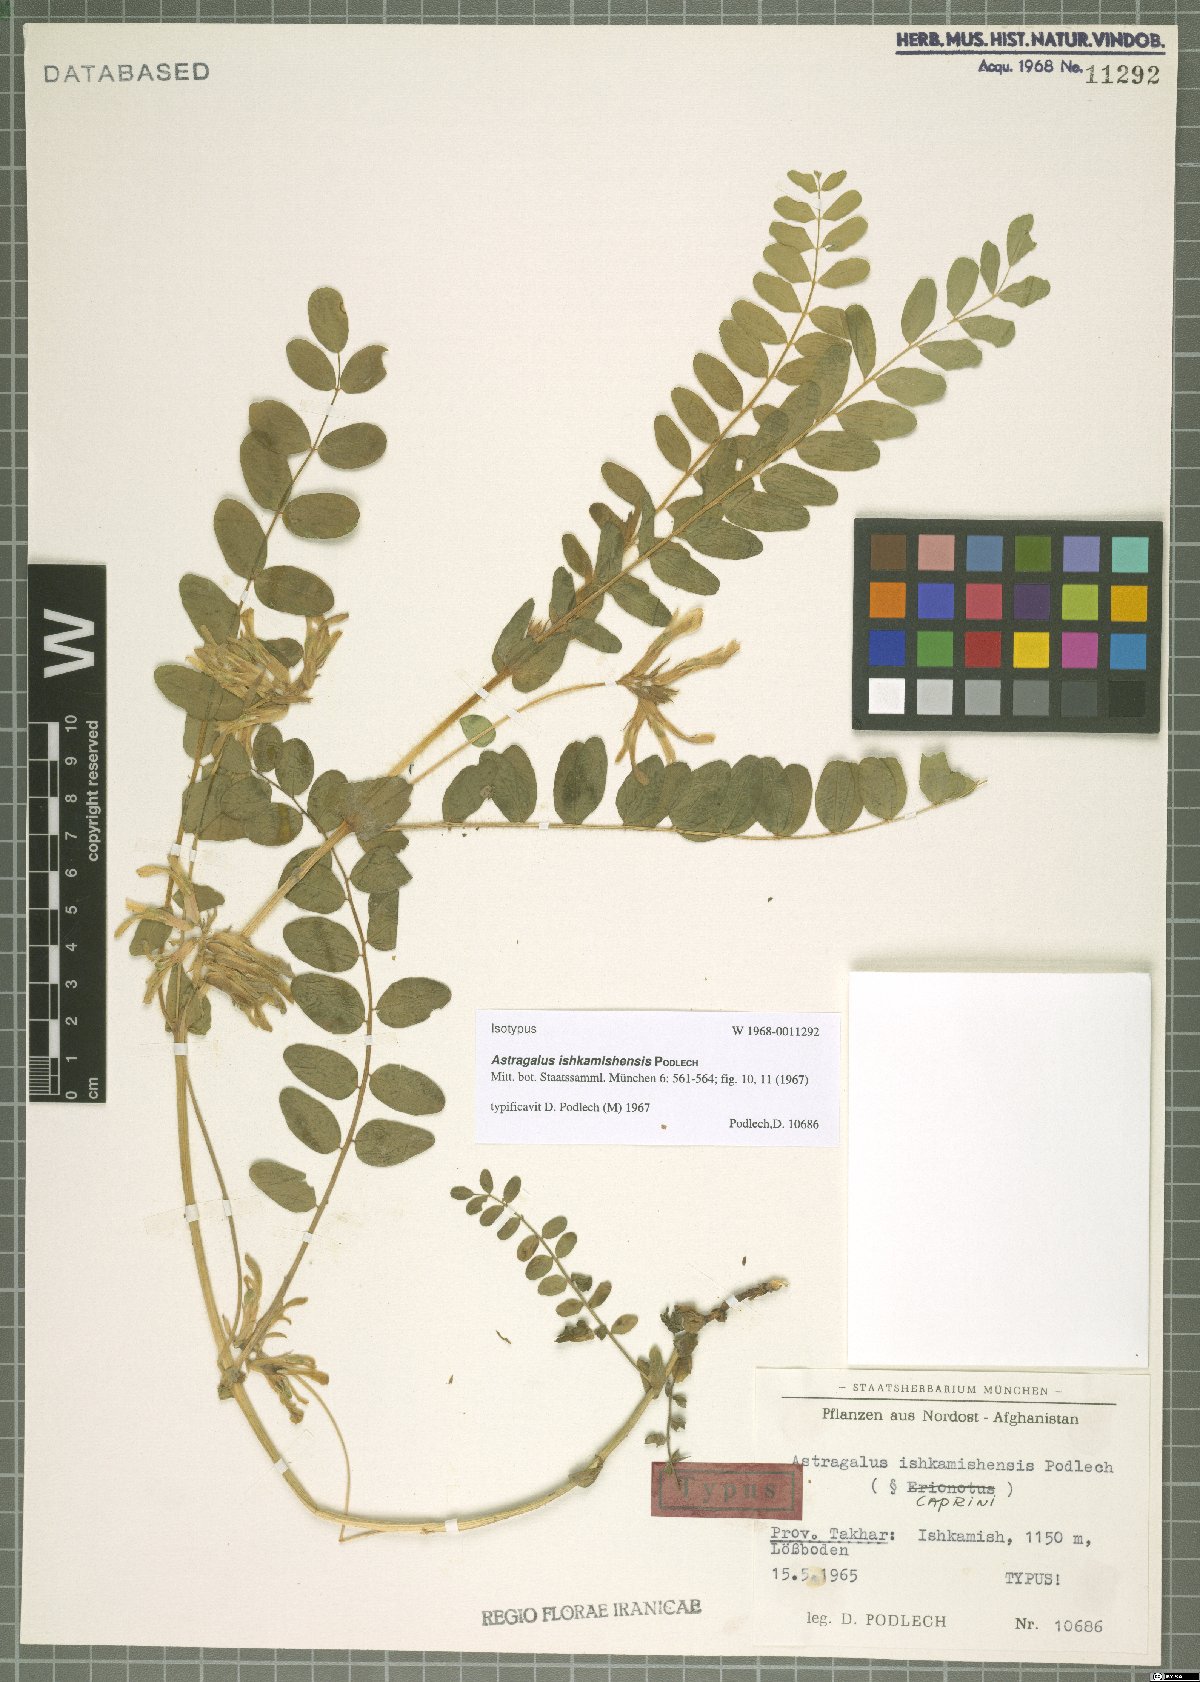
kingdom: Plantae
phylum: Tracheophyta
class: Magnoliopsida
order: Fabales
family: Fabaceae
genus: Astragalus
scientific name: Astragalus ishkamishensis
